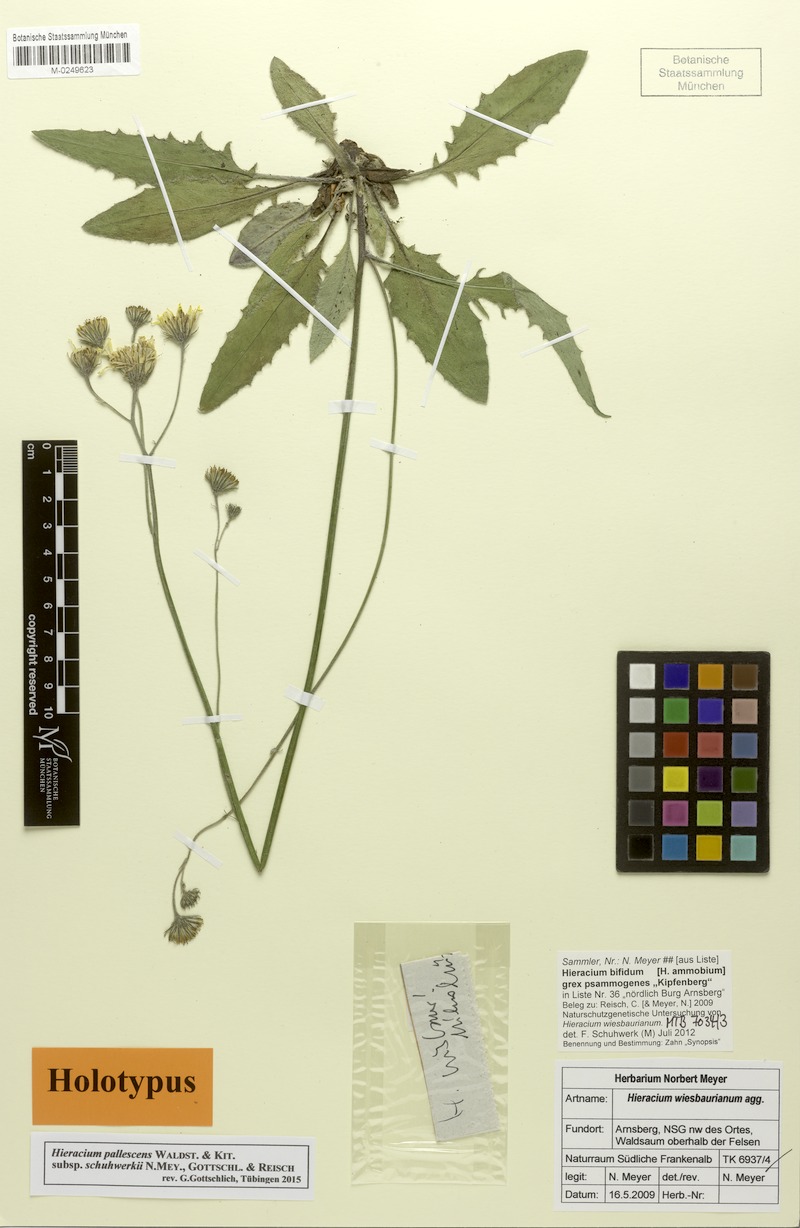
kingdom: Plantae
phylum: Tracheophyta
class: Magnoliopsida
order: Asterales
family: Asteraceae
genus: Hieracium
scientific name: Hieracium pallescens
